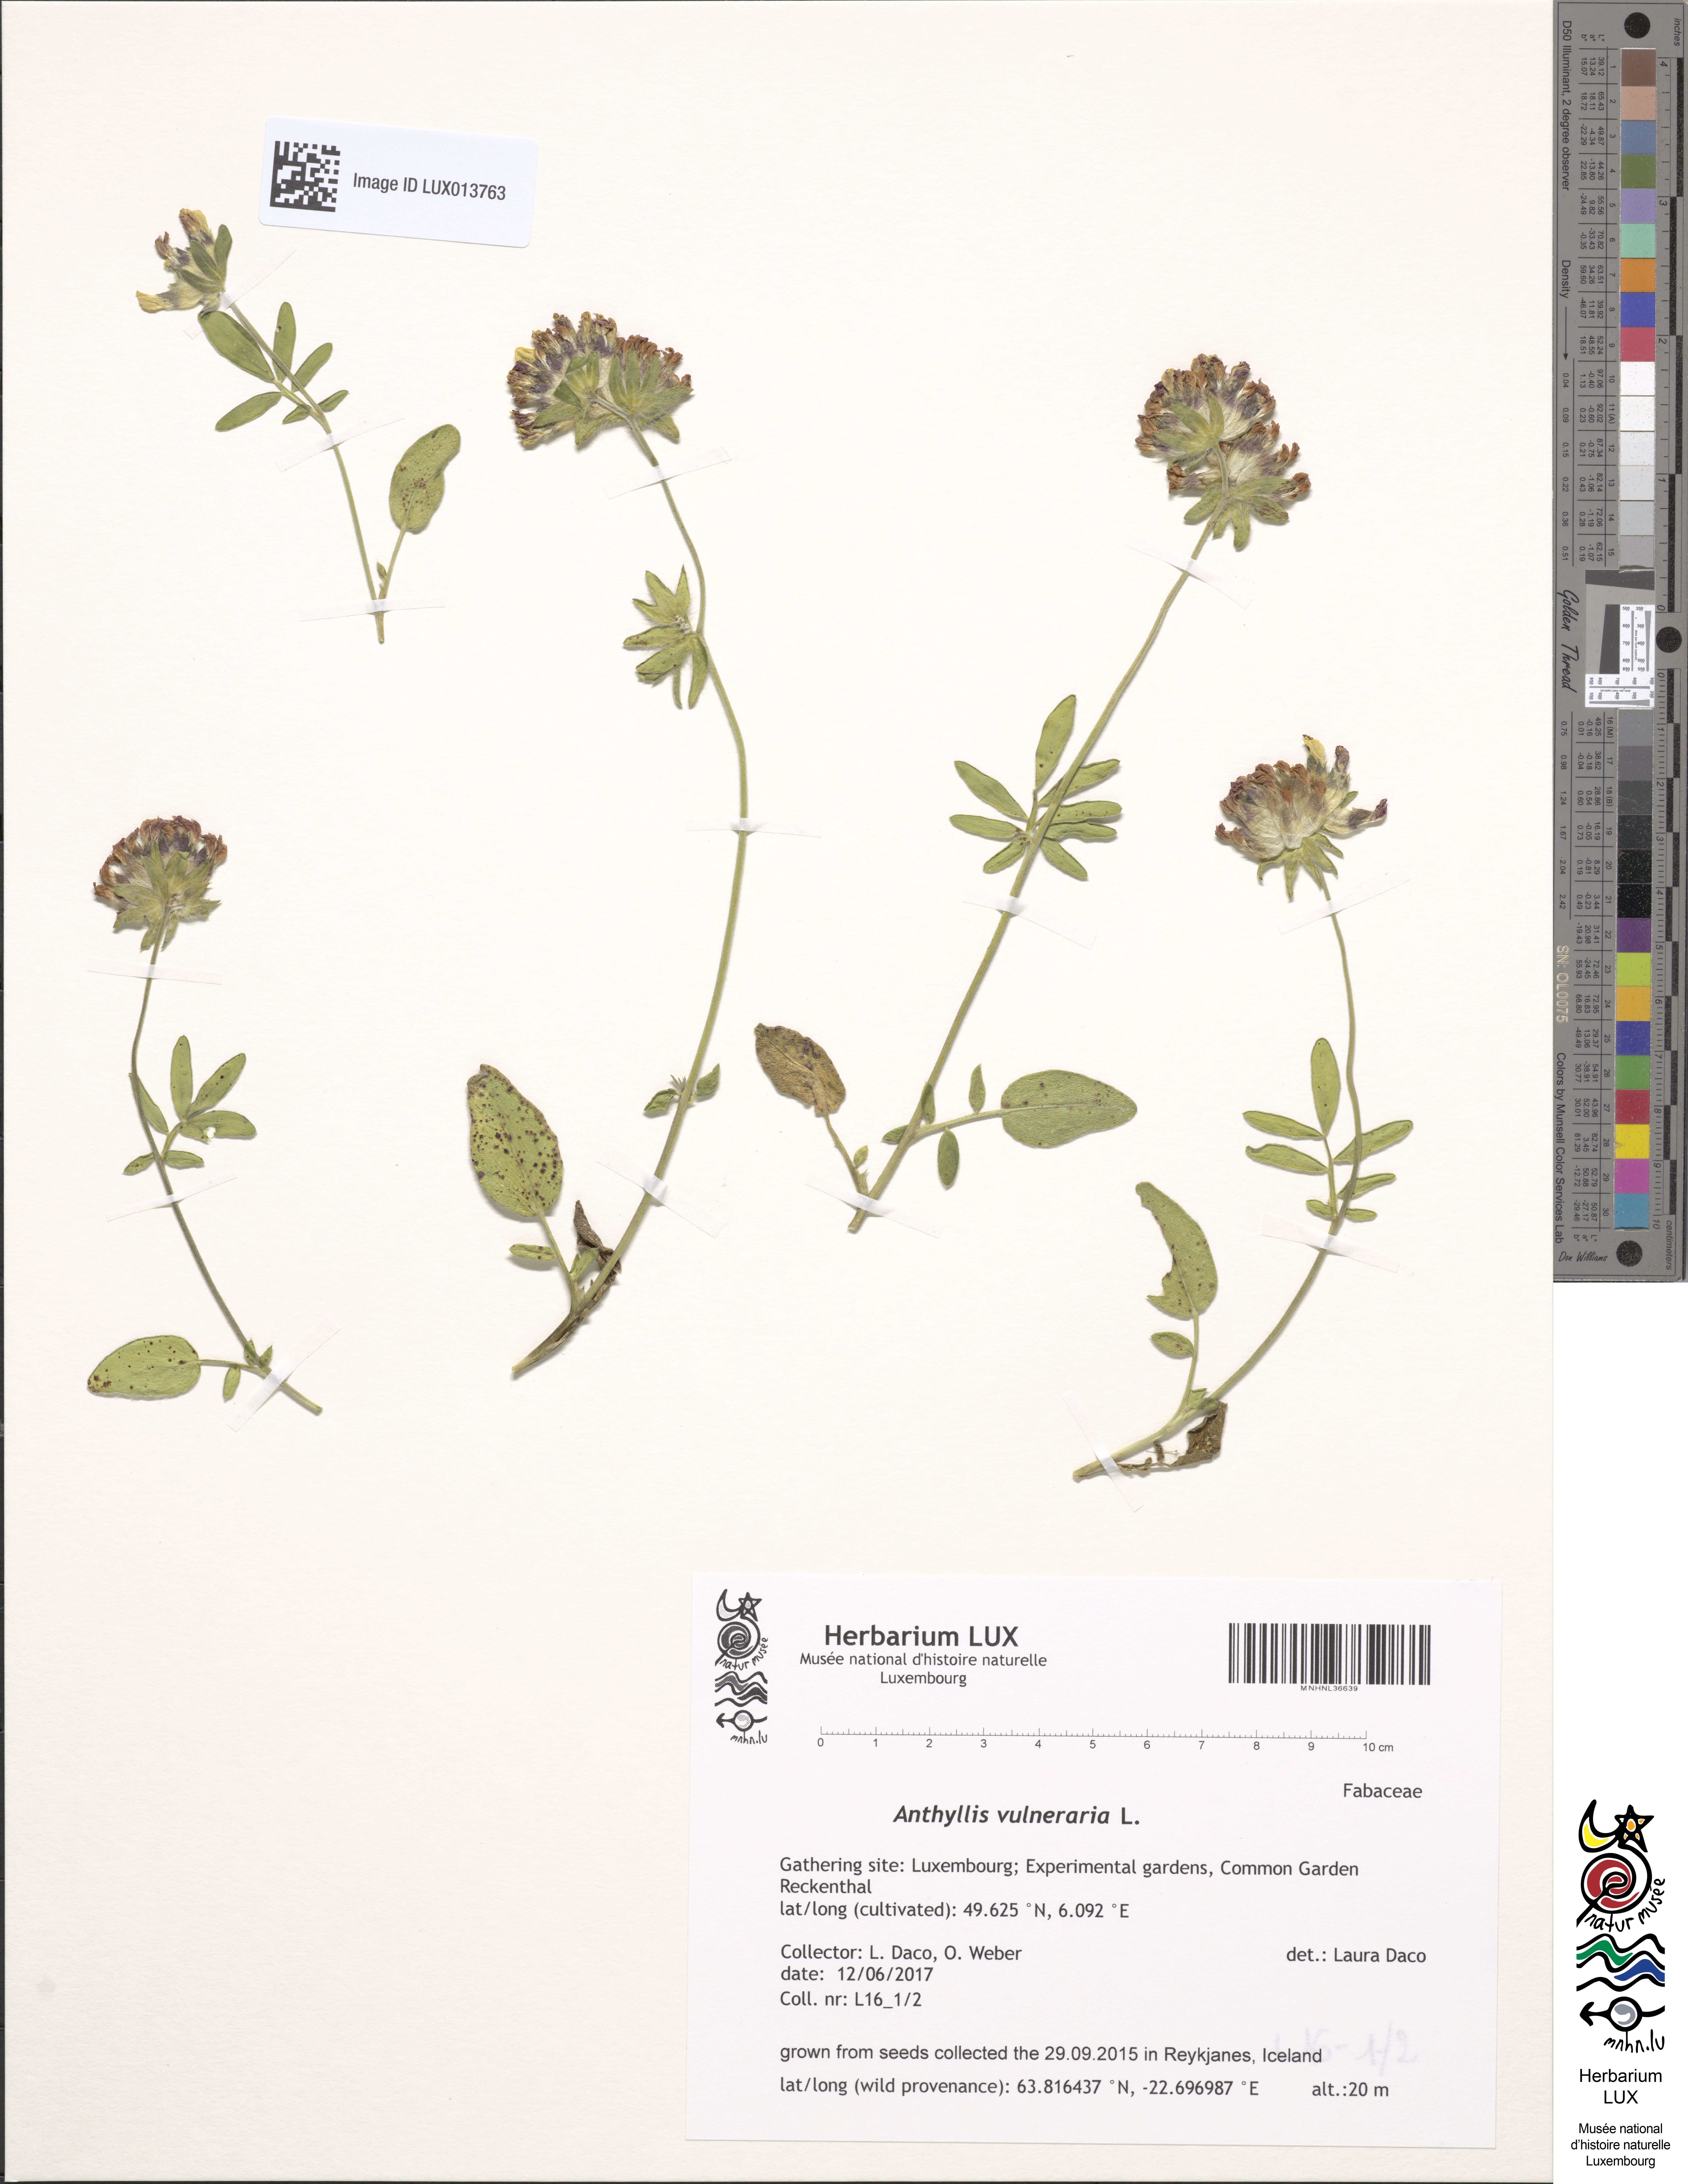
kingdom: Plantae
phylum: Tracheophyta
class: Magnoliopsida
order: Fabales
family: Fabaceae
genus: Anthyllis
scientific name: Anthyllis vulneraria
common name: Kidney vetch
